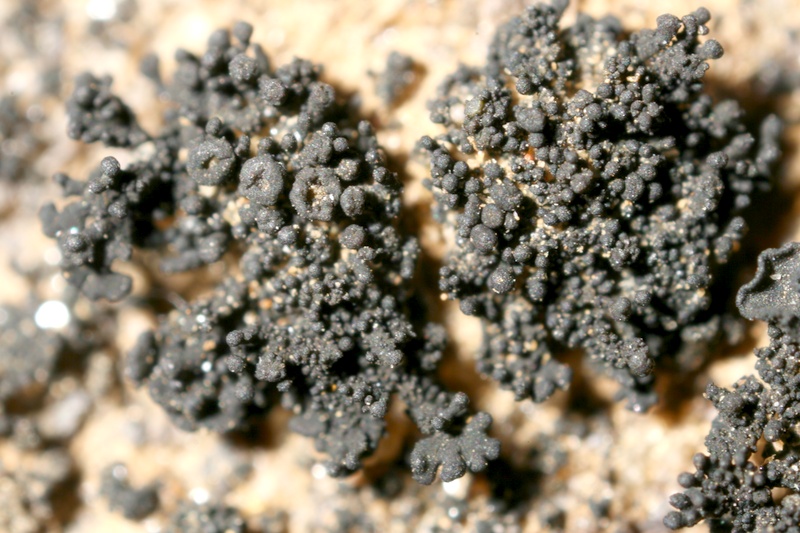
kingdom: Fungi
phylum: Ascomycota
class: Lichinomycetes
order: Lichinales
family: Lichinaceae
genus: Synalissa
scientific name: Synalissa
